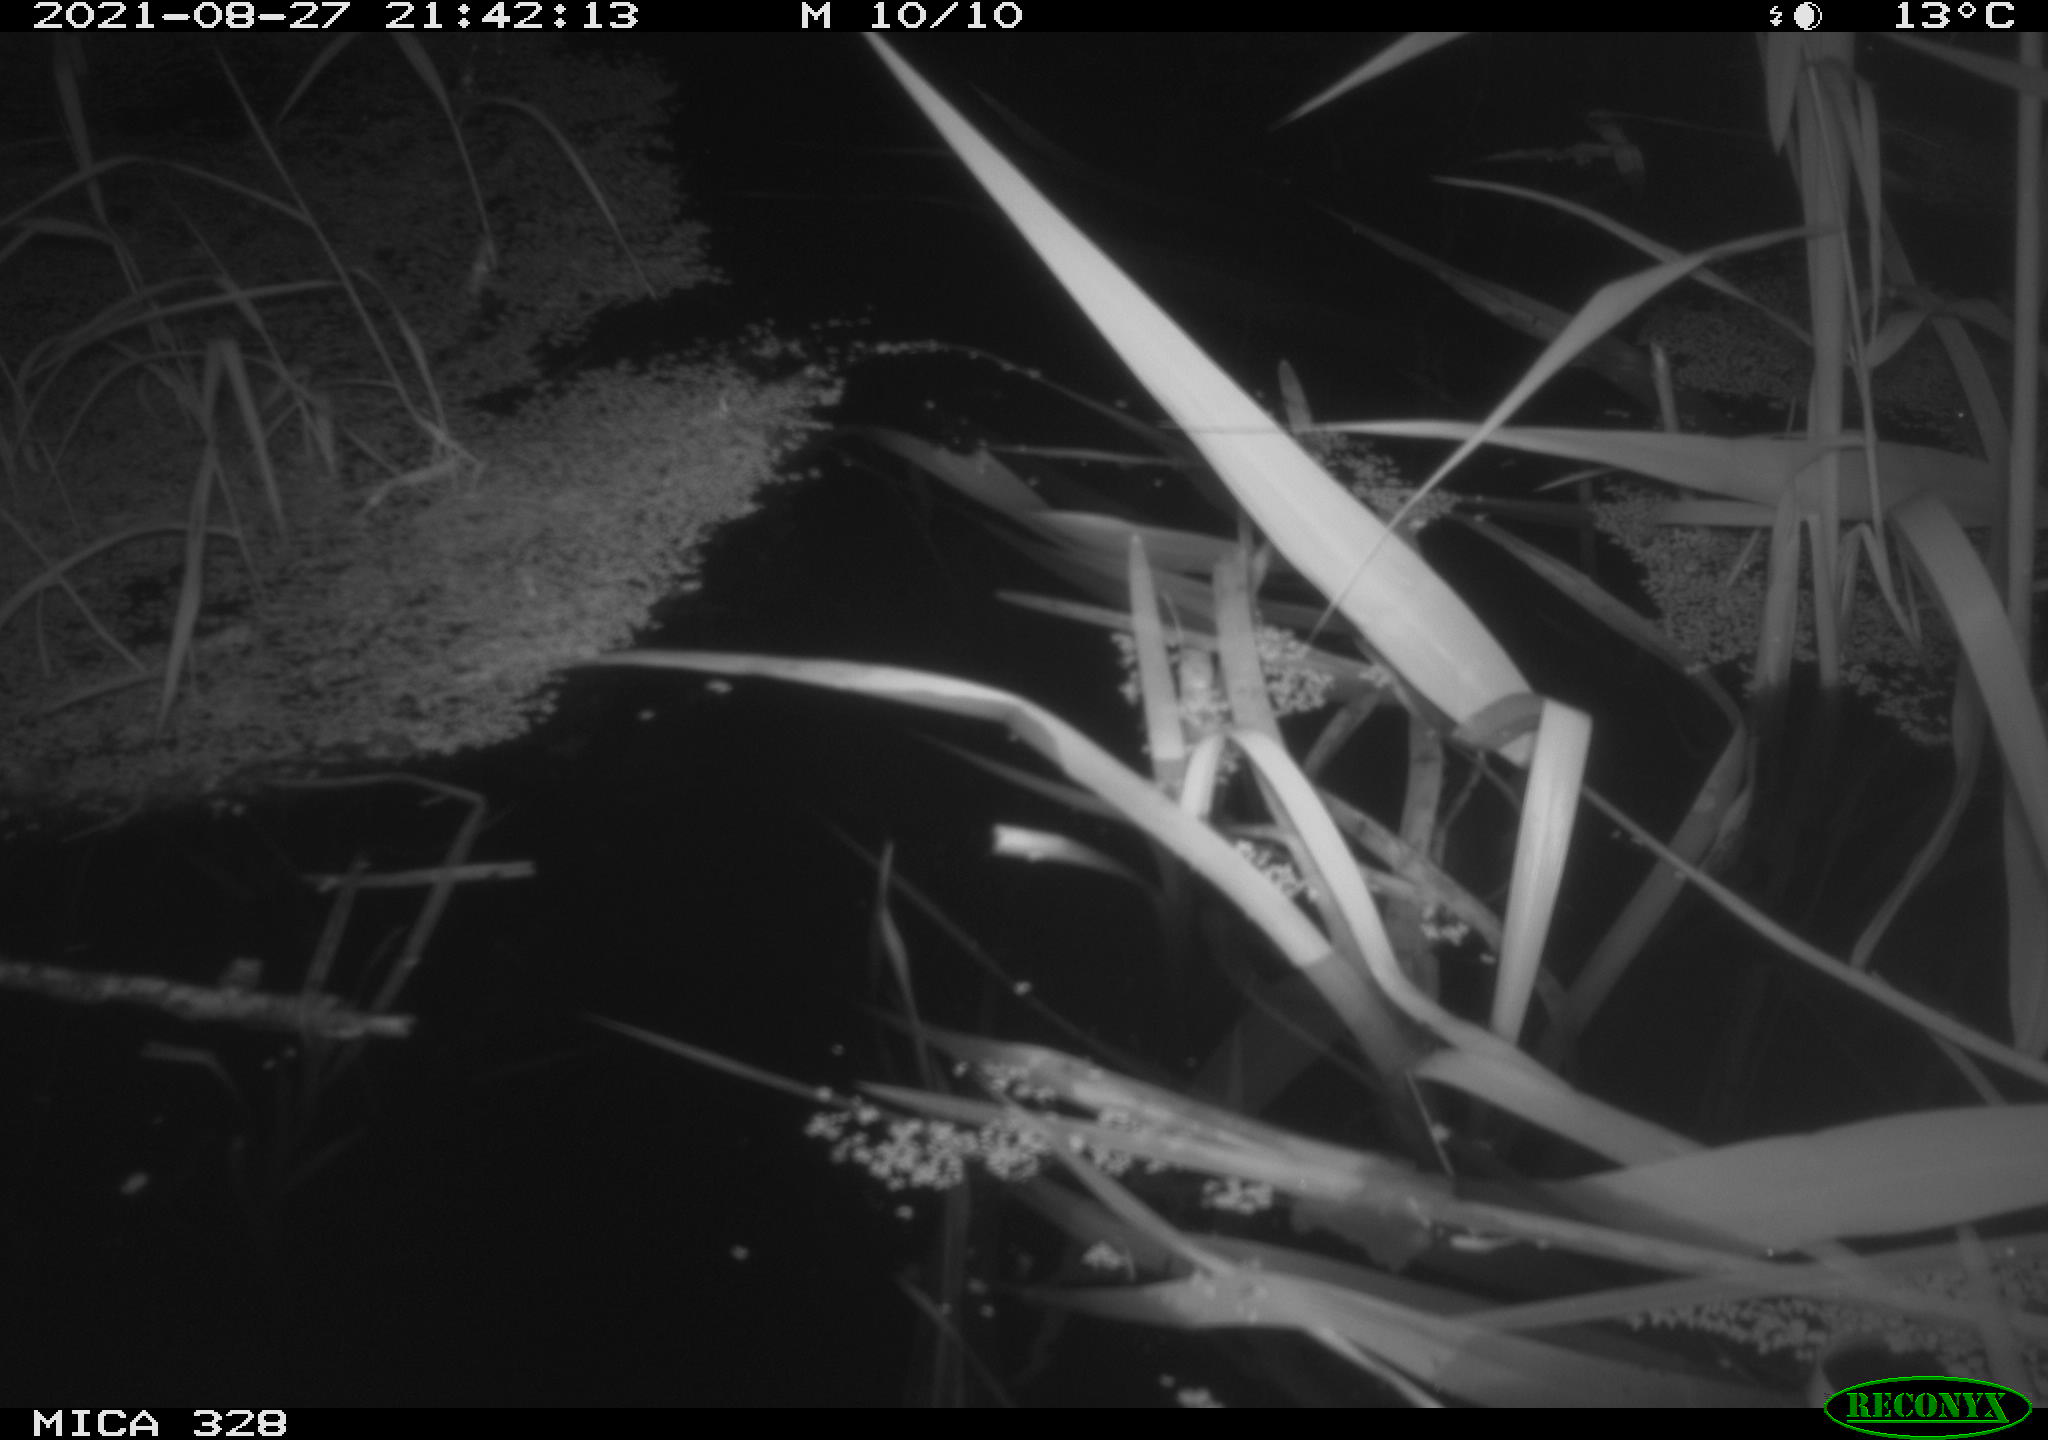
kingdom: Animalia
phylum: Chordata
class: Mammalia
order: Rodentia
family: Cricetidae
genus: Ondatra
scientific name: Ondatra zibethicus
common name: Muskrat
